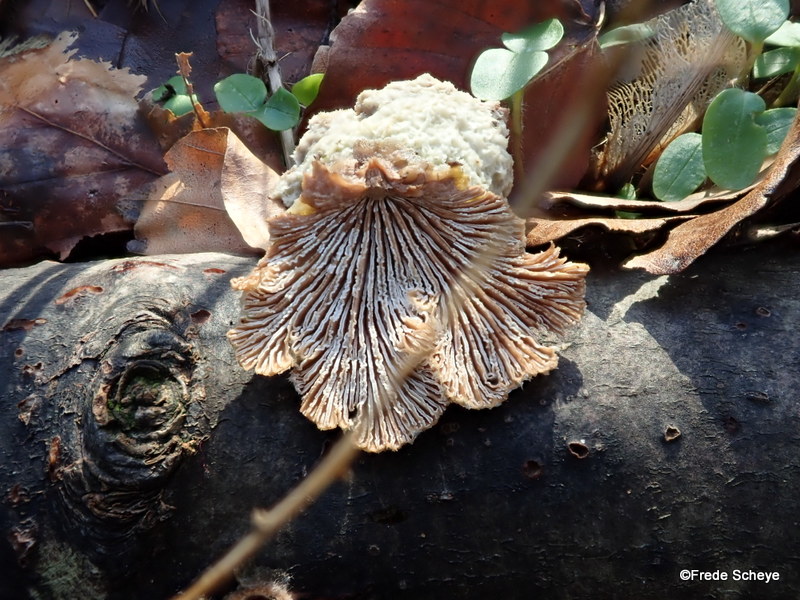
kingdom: Fungi
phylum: Basidiomycota
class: Agaricomycetes
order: Agaricales
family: Schizophyllaceae
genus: Schizophyllum
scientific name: Schizophyllum commune
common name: kløvblad
